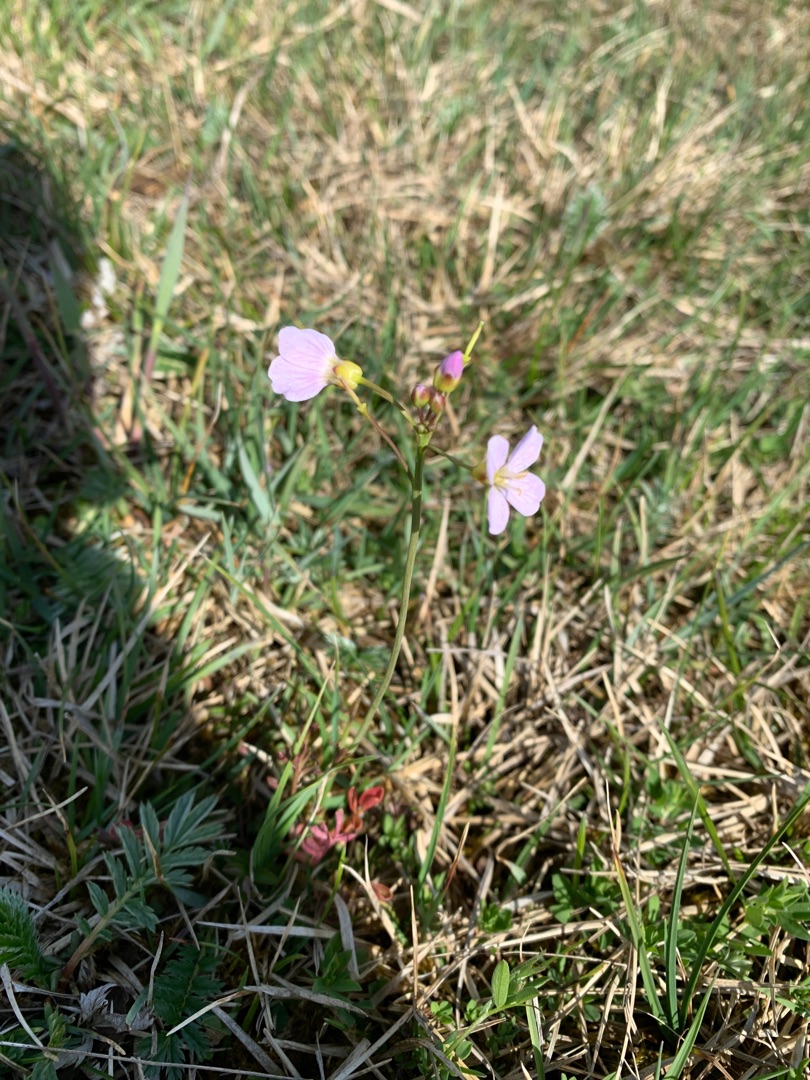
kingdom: Plantae
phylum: Tracheophyta
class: Magnoliopsida
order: Brassicales
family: Brassicaceae
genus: Cardamine
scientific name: Cardamine pratensis
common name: Engkarse
